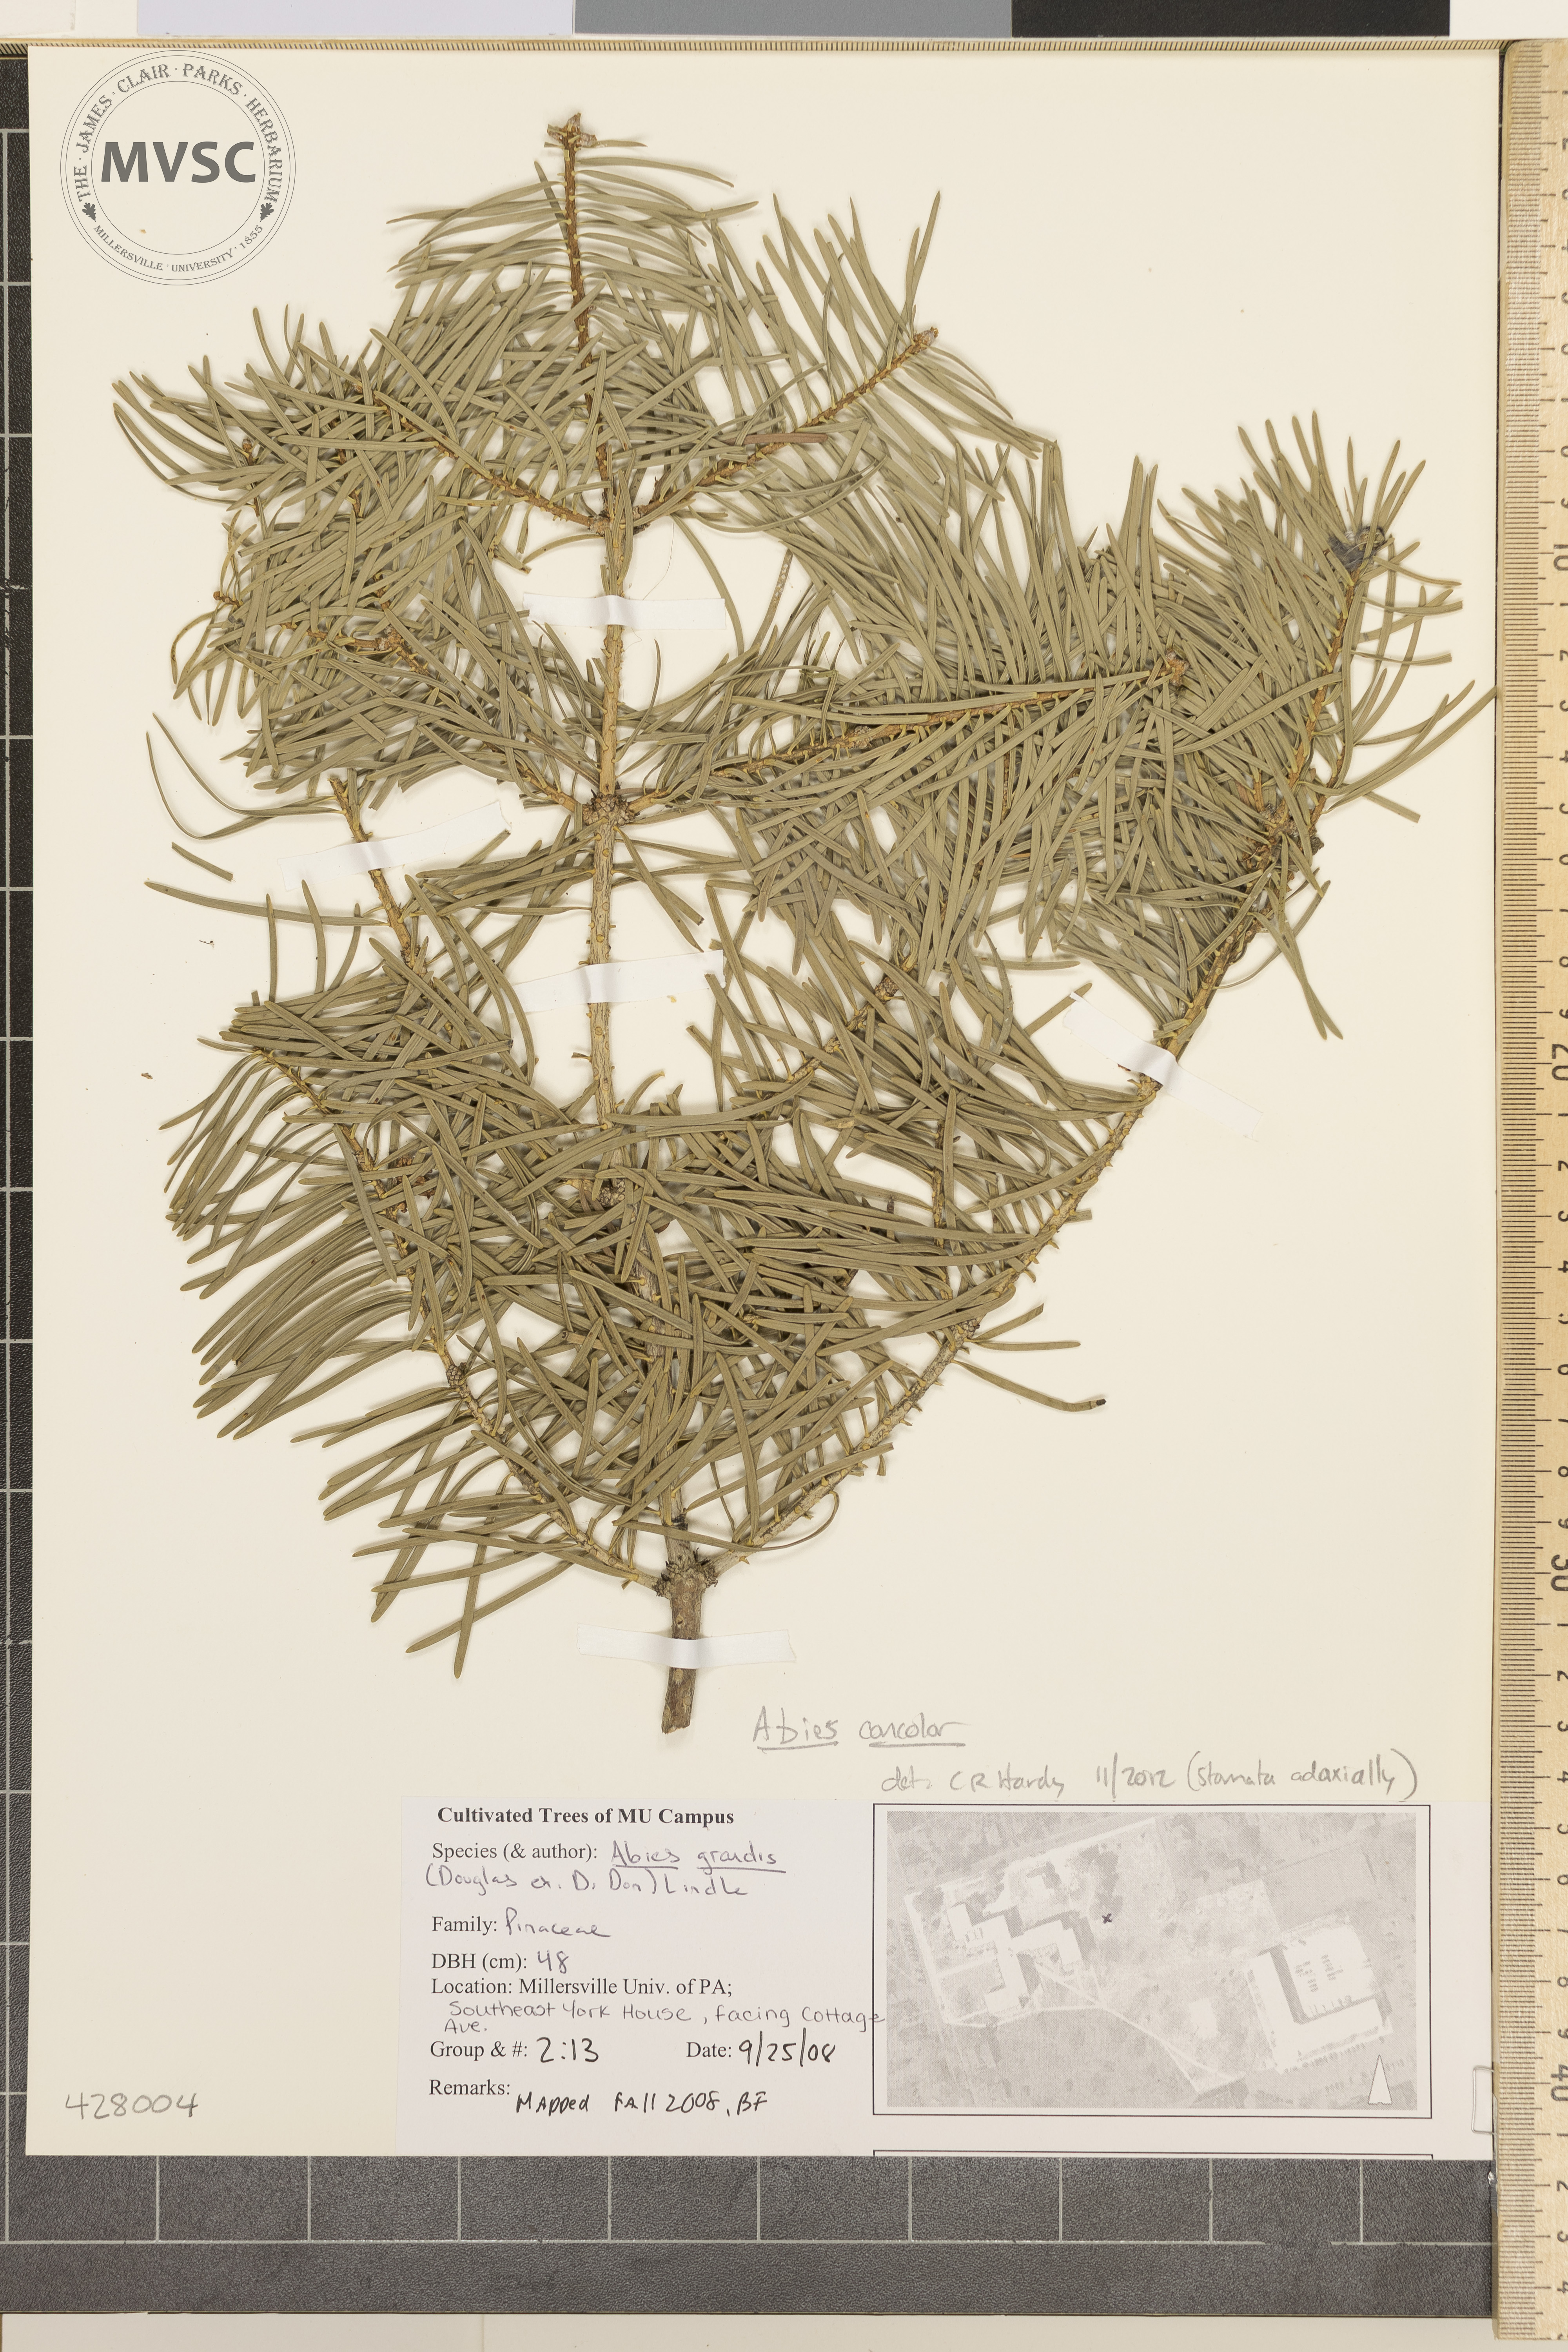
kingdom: Plantae
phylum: Tracheophyta
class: Pinopsida
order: Pinales
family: Pinaceae
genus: Abies
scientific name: Abies concolor
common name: Colorado fir
